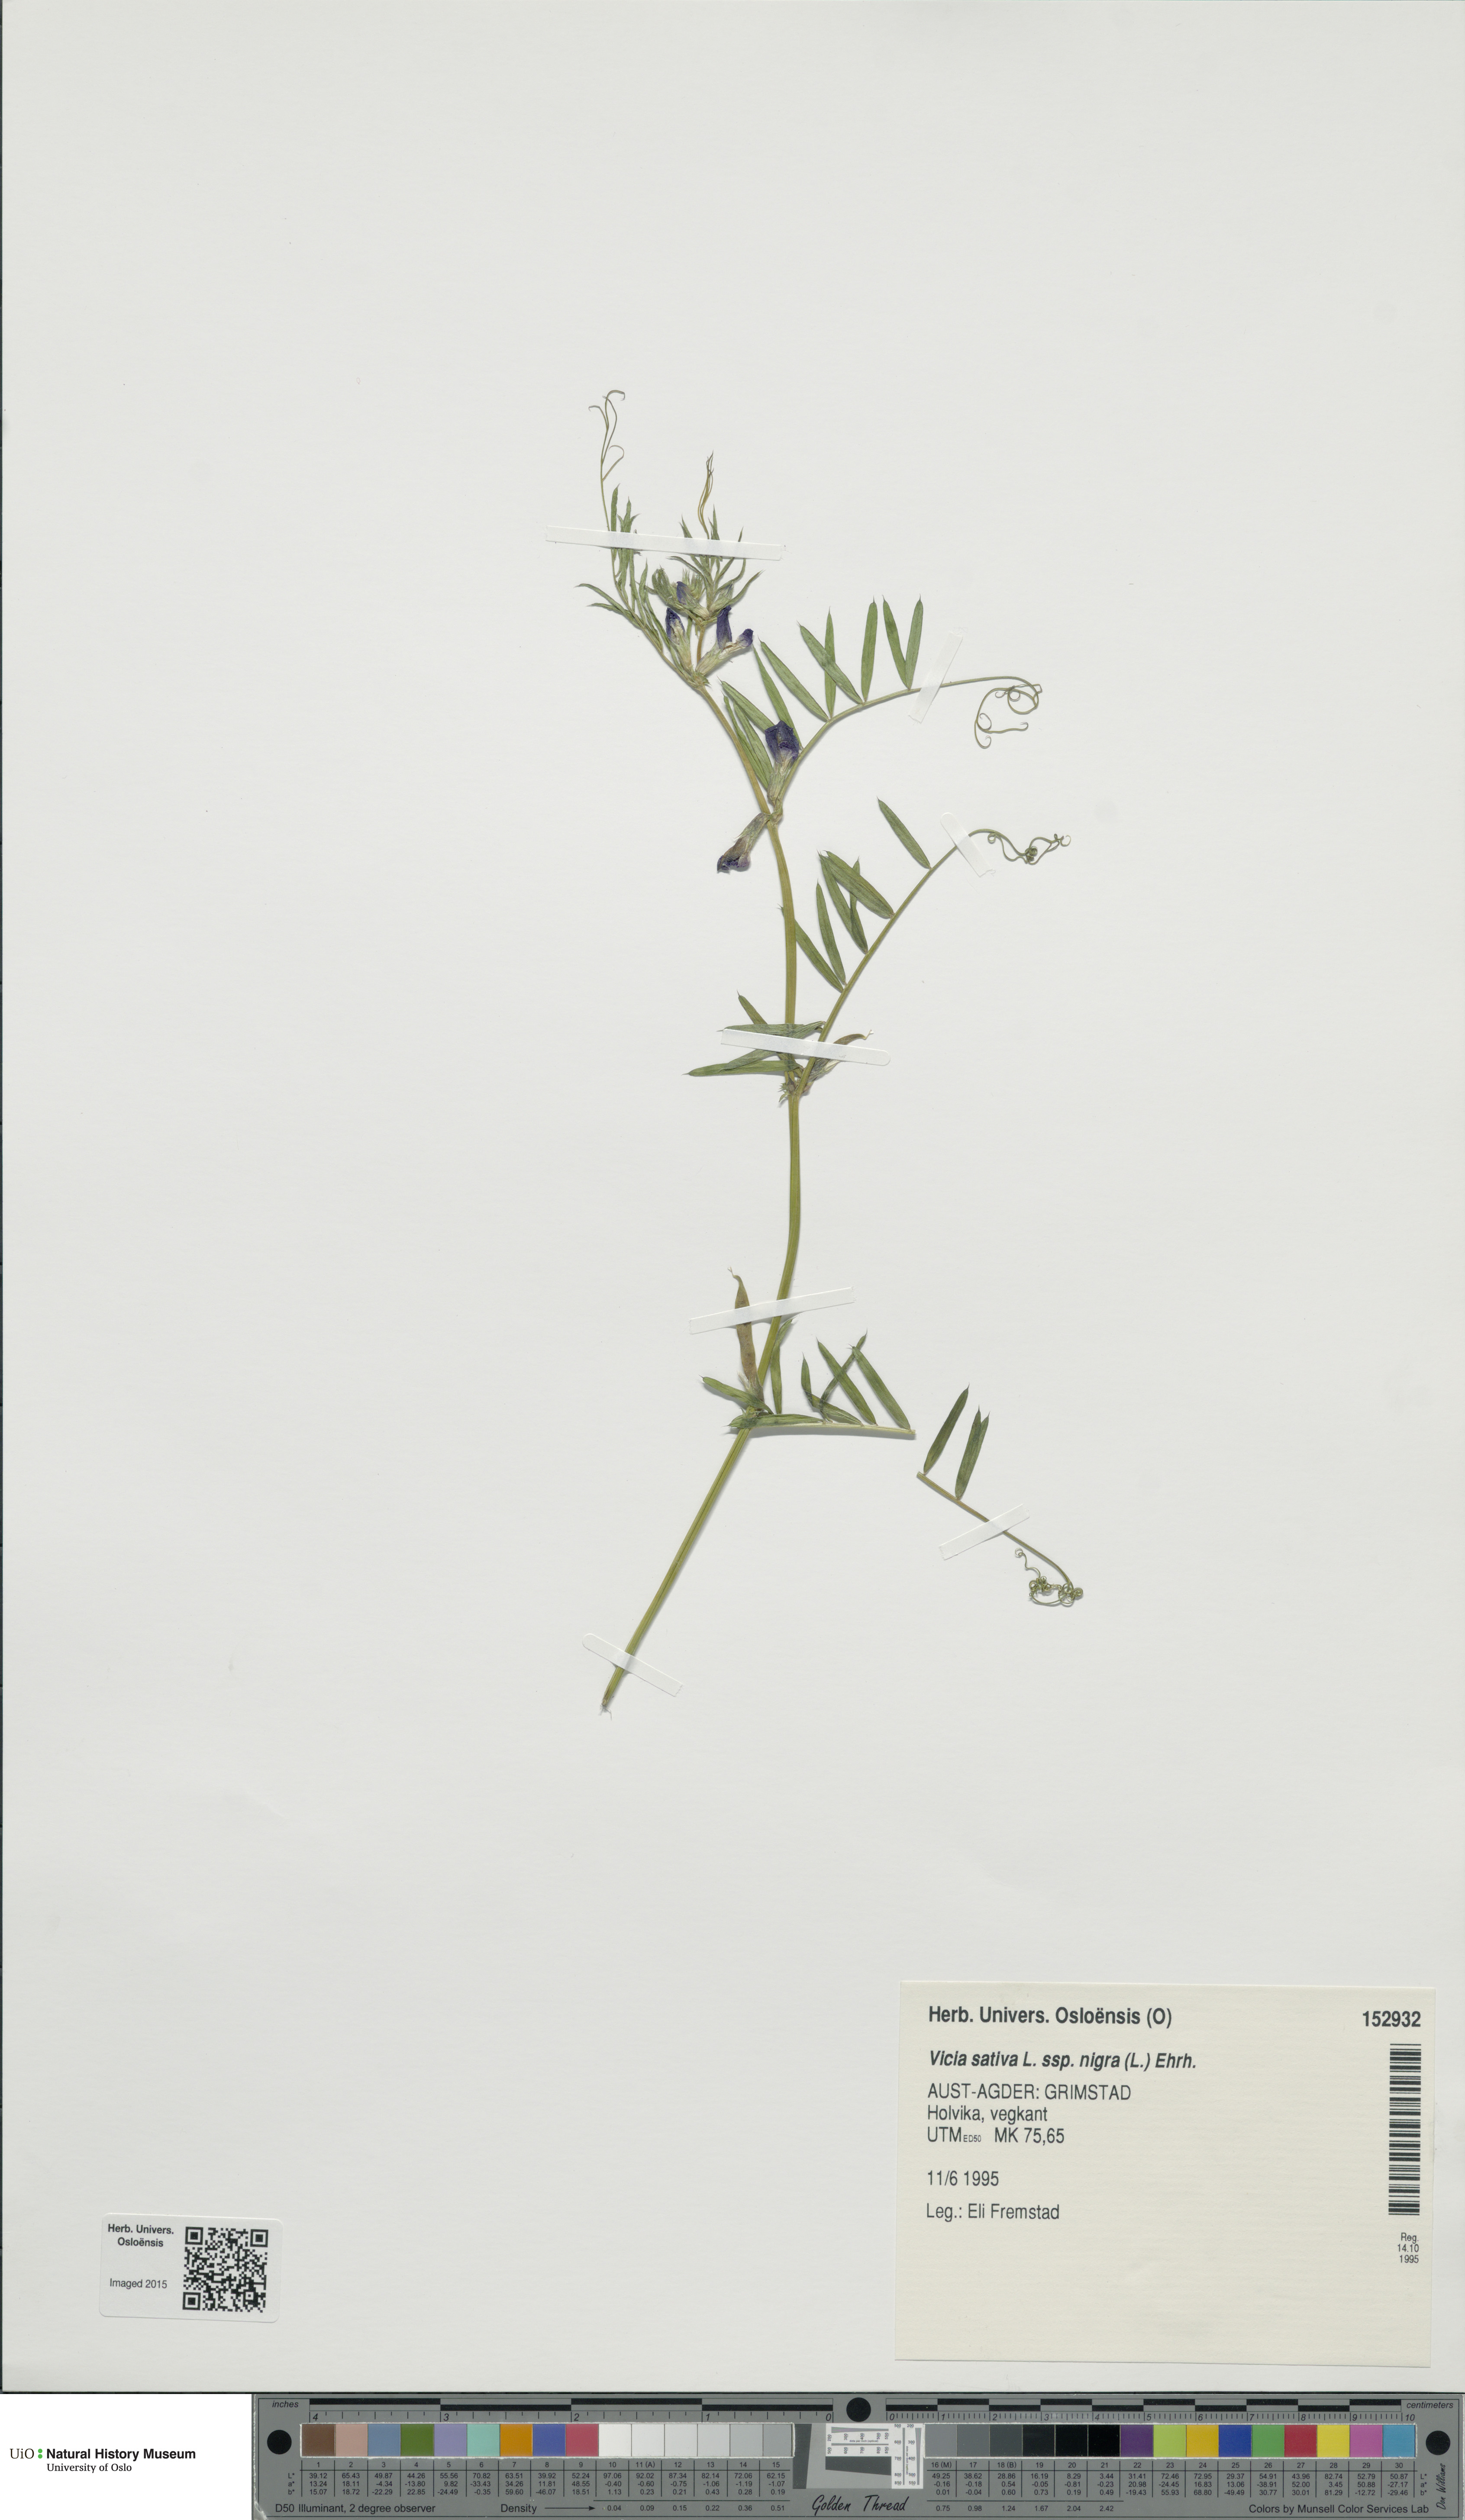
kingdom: Plantae
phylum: Tracheophyta
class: Magnoliopsida
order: Fabales
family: Fabaceae
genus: Vicia
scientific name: Vicia sativa
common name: Garden vetch
